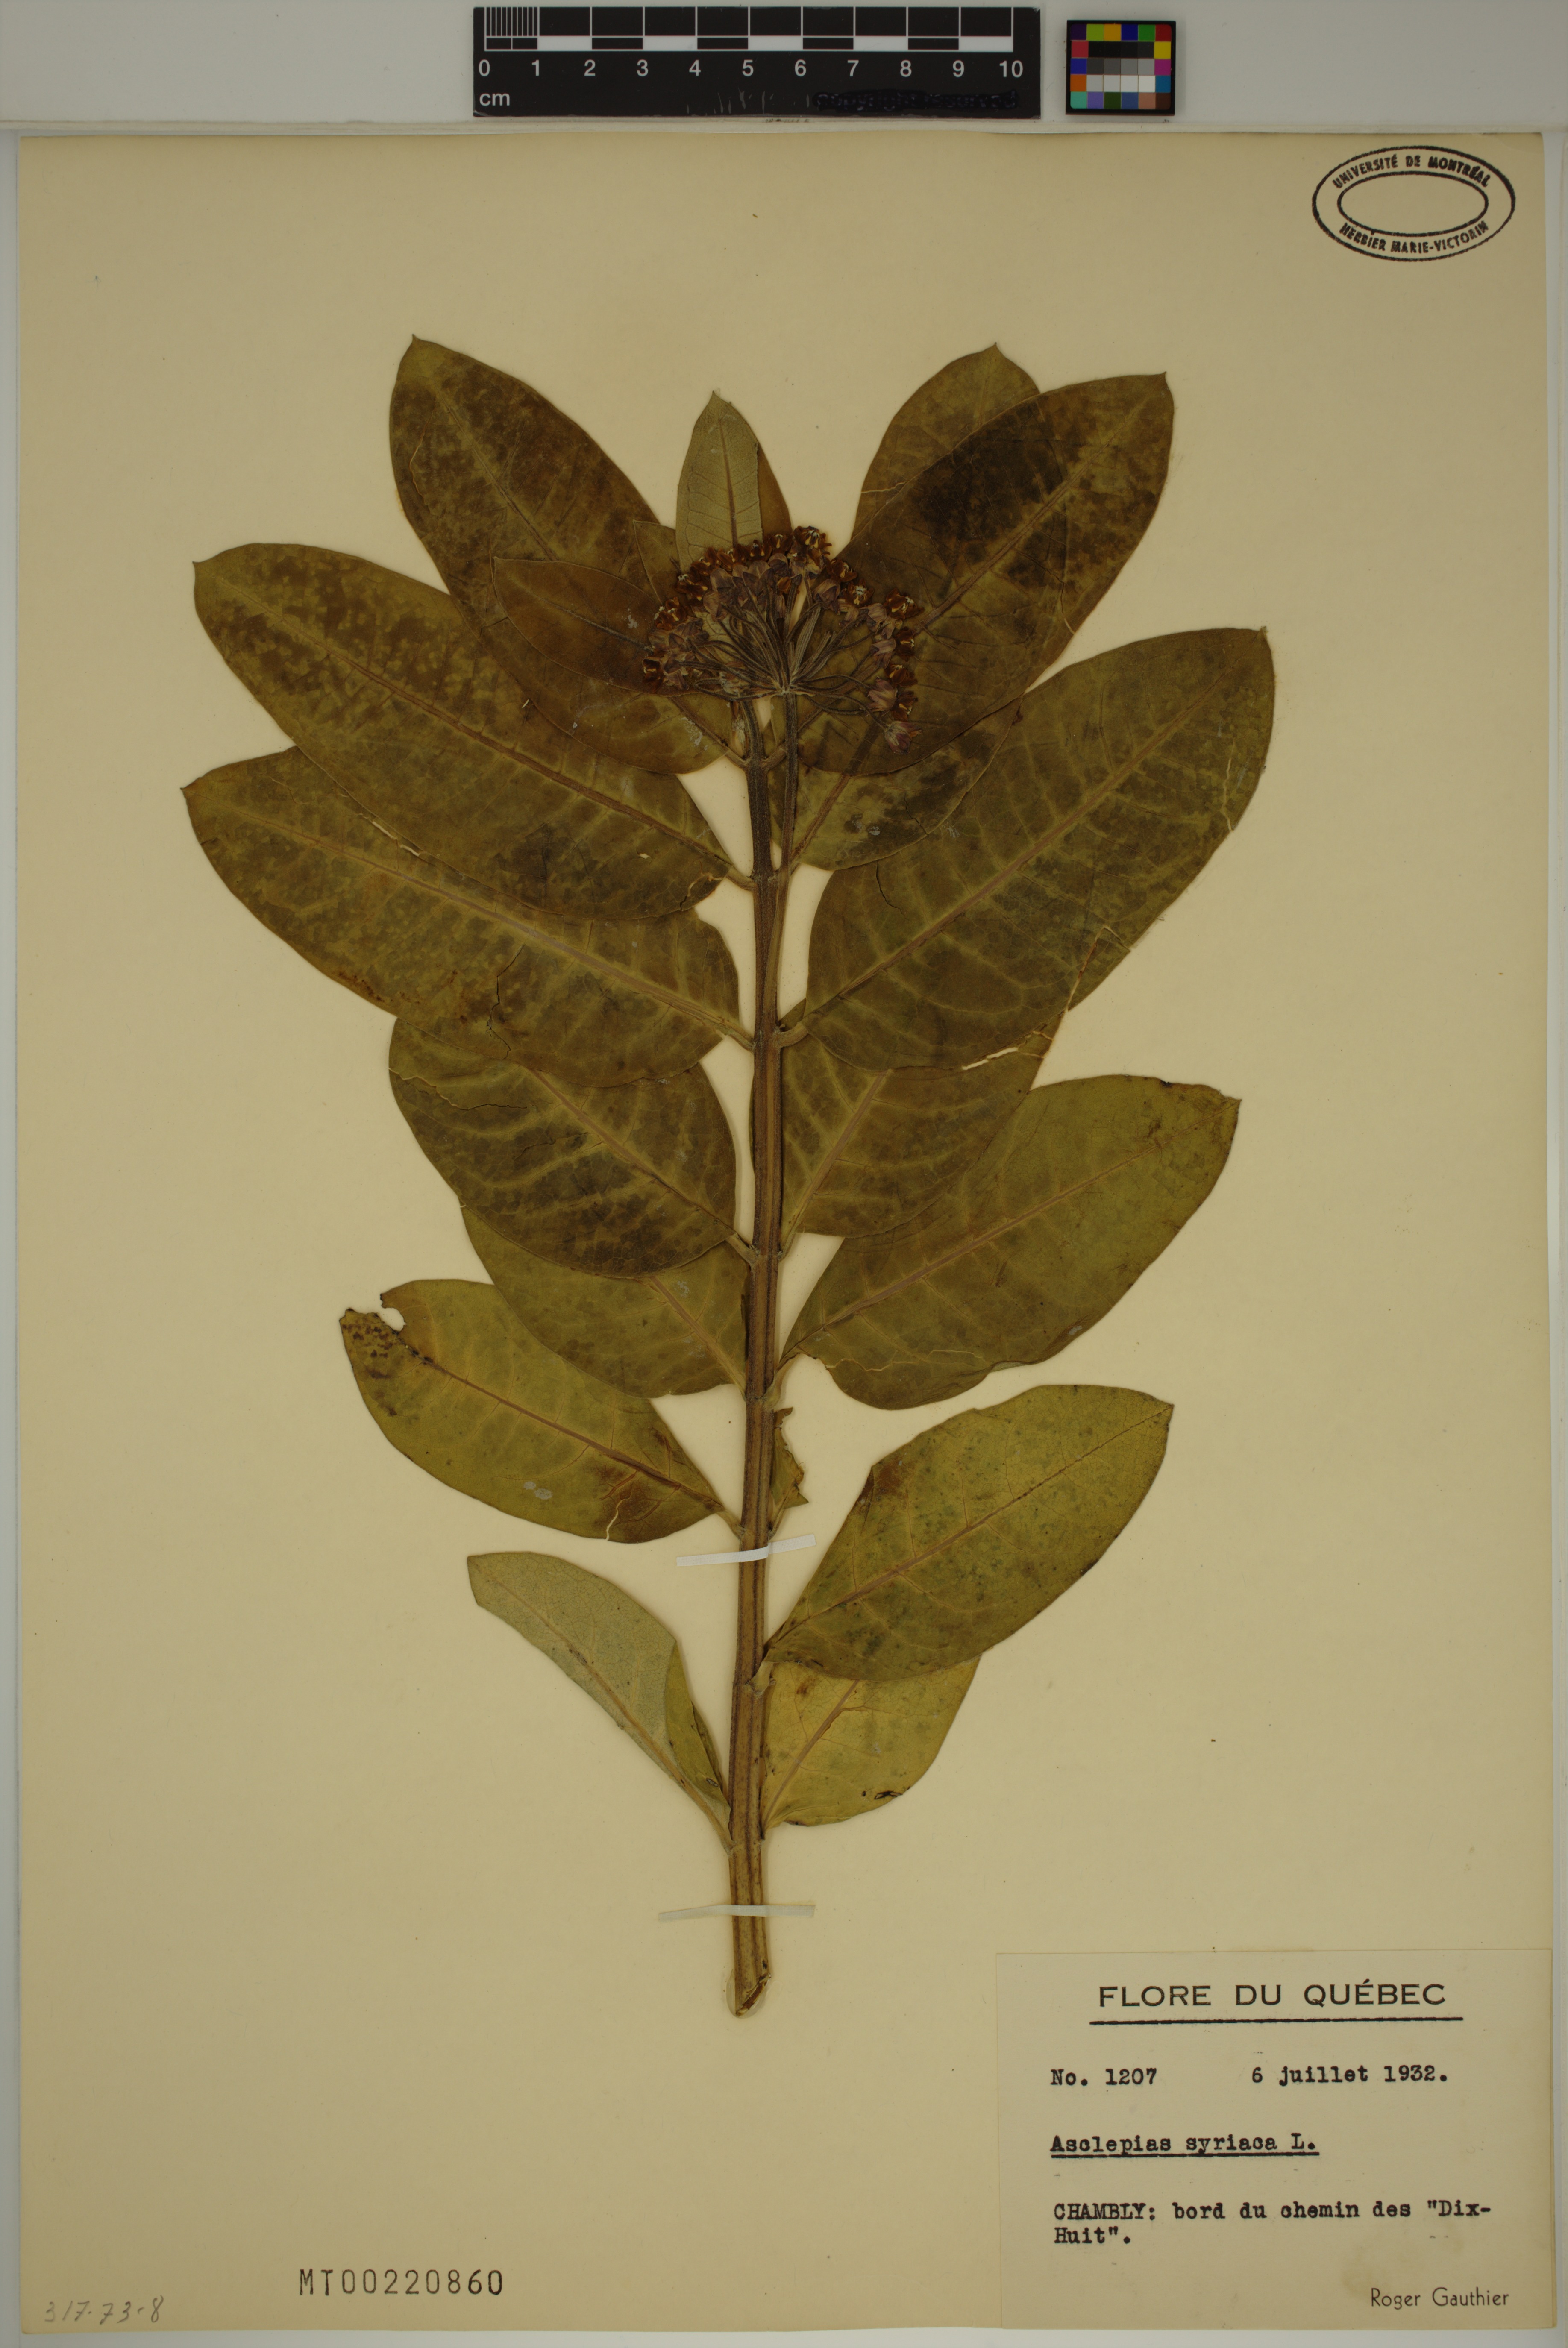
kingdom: Plantae
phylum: Tracheophyta
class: Magnoliopsida
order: Gentianales
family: Apocynaceae
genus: Asclepias
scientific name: Asclepias syriaca
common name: Common milkweed
